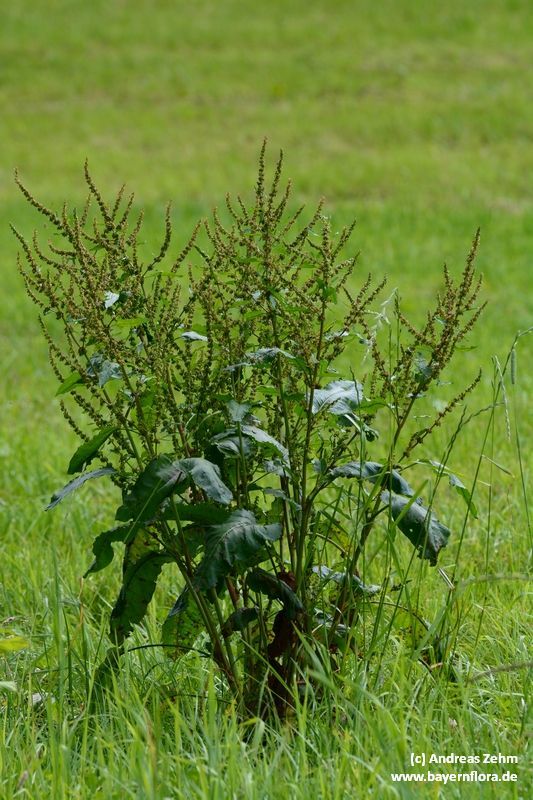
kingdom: Plantae
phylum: Tracheophyta
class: Magnoliopsida
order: Caryophyllales
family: Polygonaceae
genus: Rumex
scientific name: Rumex obtusifolius
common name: Bitter dock
